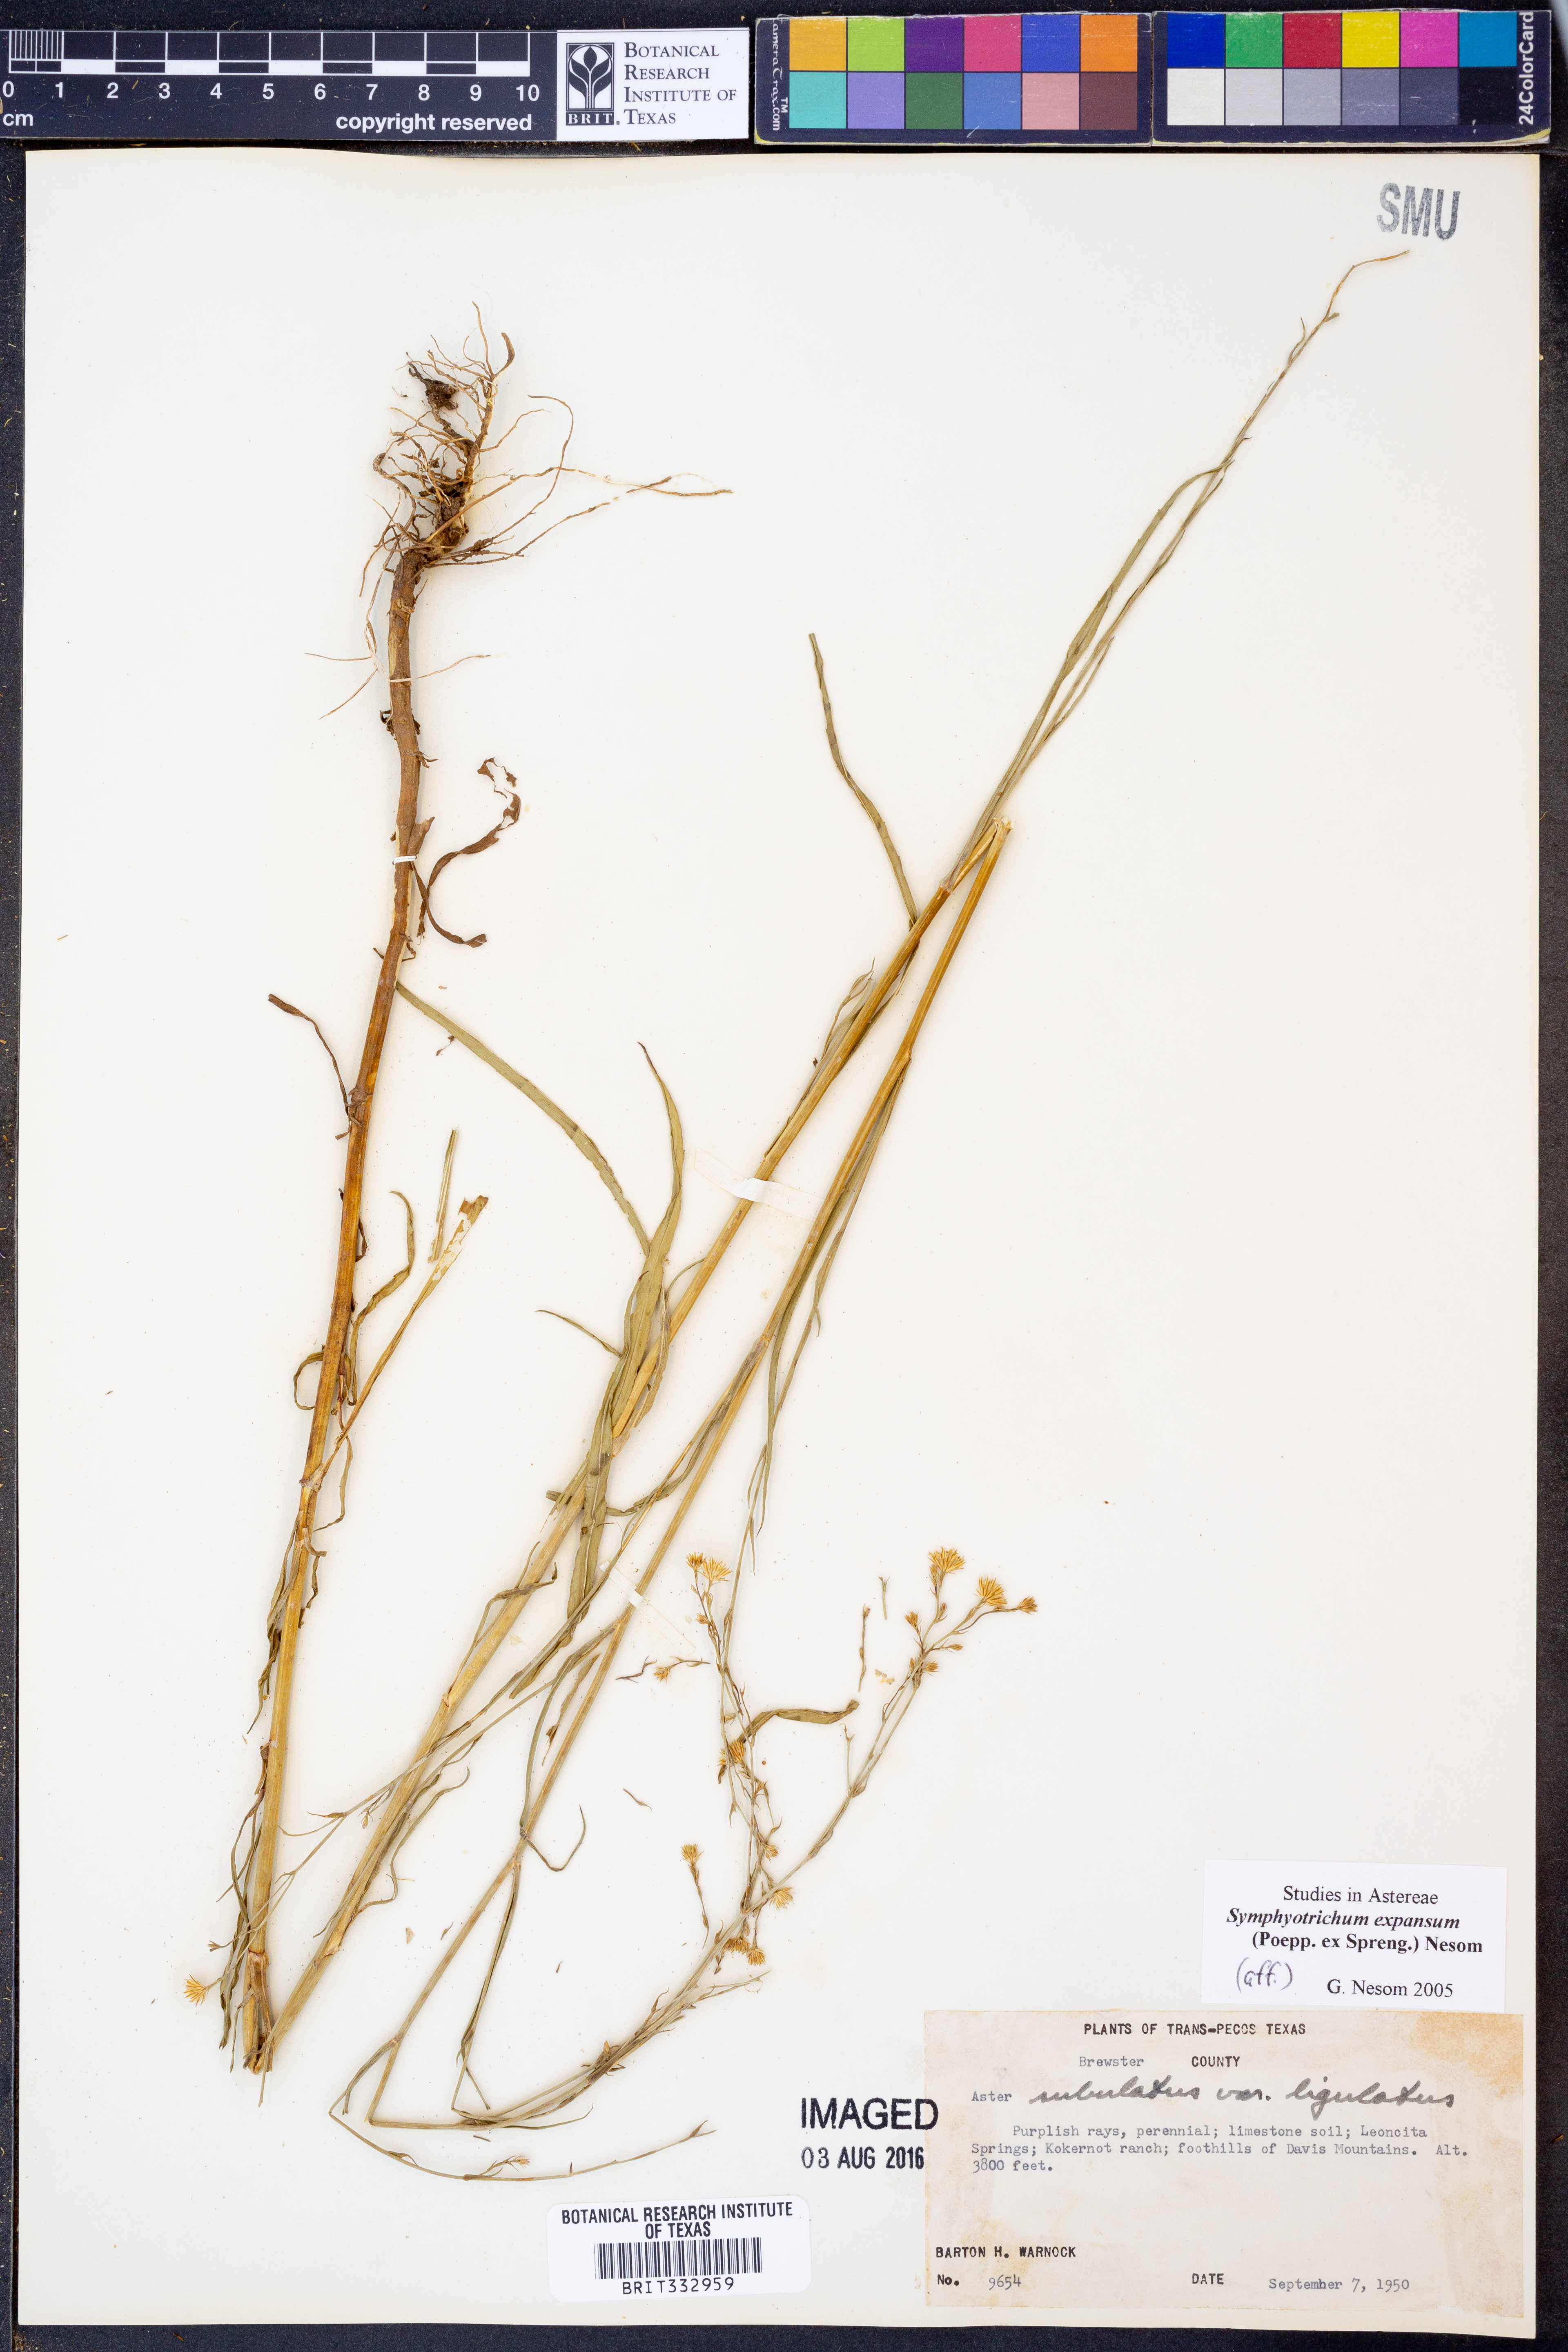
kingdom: Plantae
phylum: Tracheophyta
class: Magnoliopsida
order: Asterales
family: Asteraceae
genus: Symphyotrichum
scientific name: Symphyotrichum expansum
